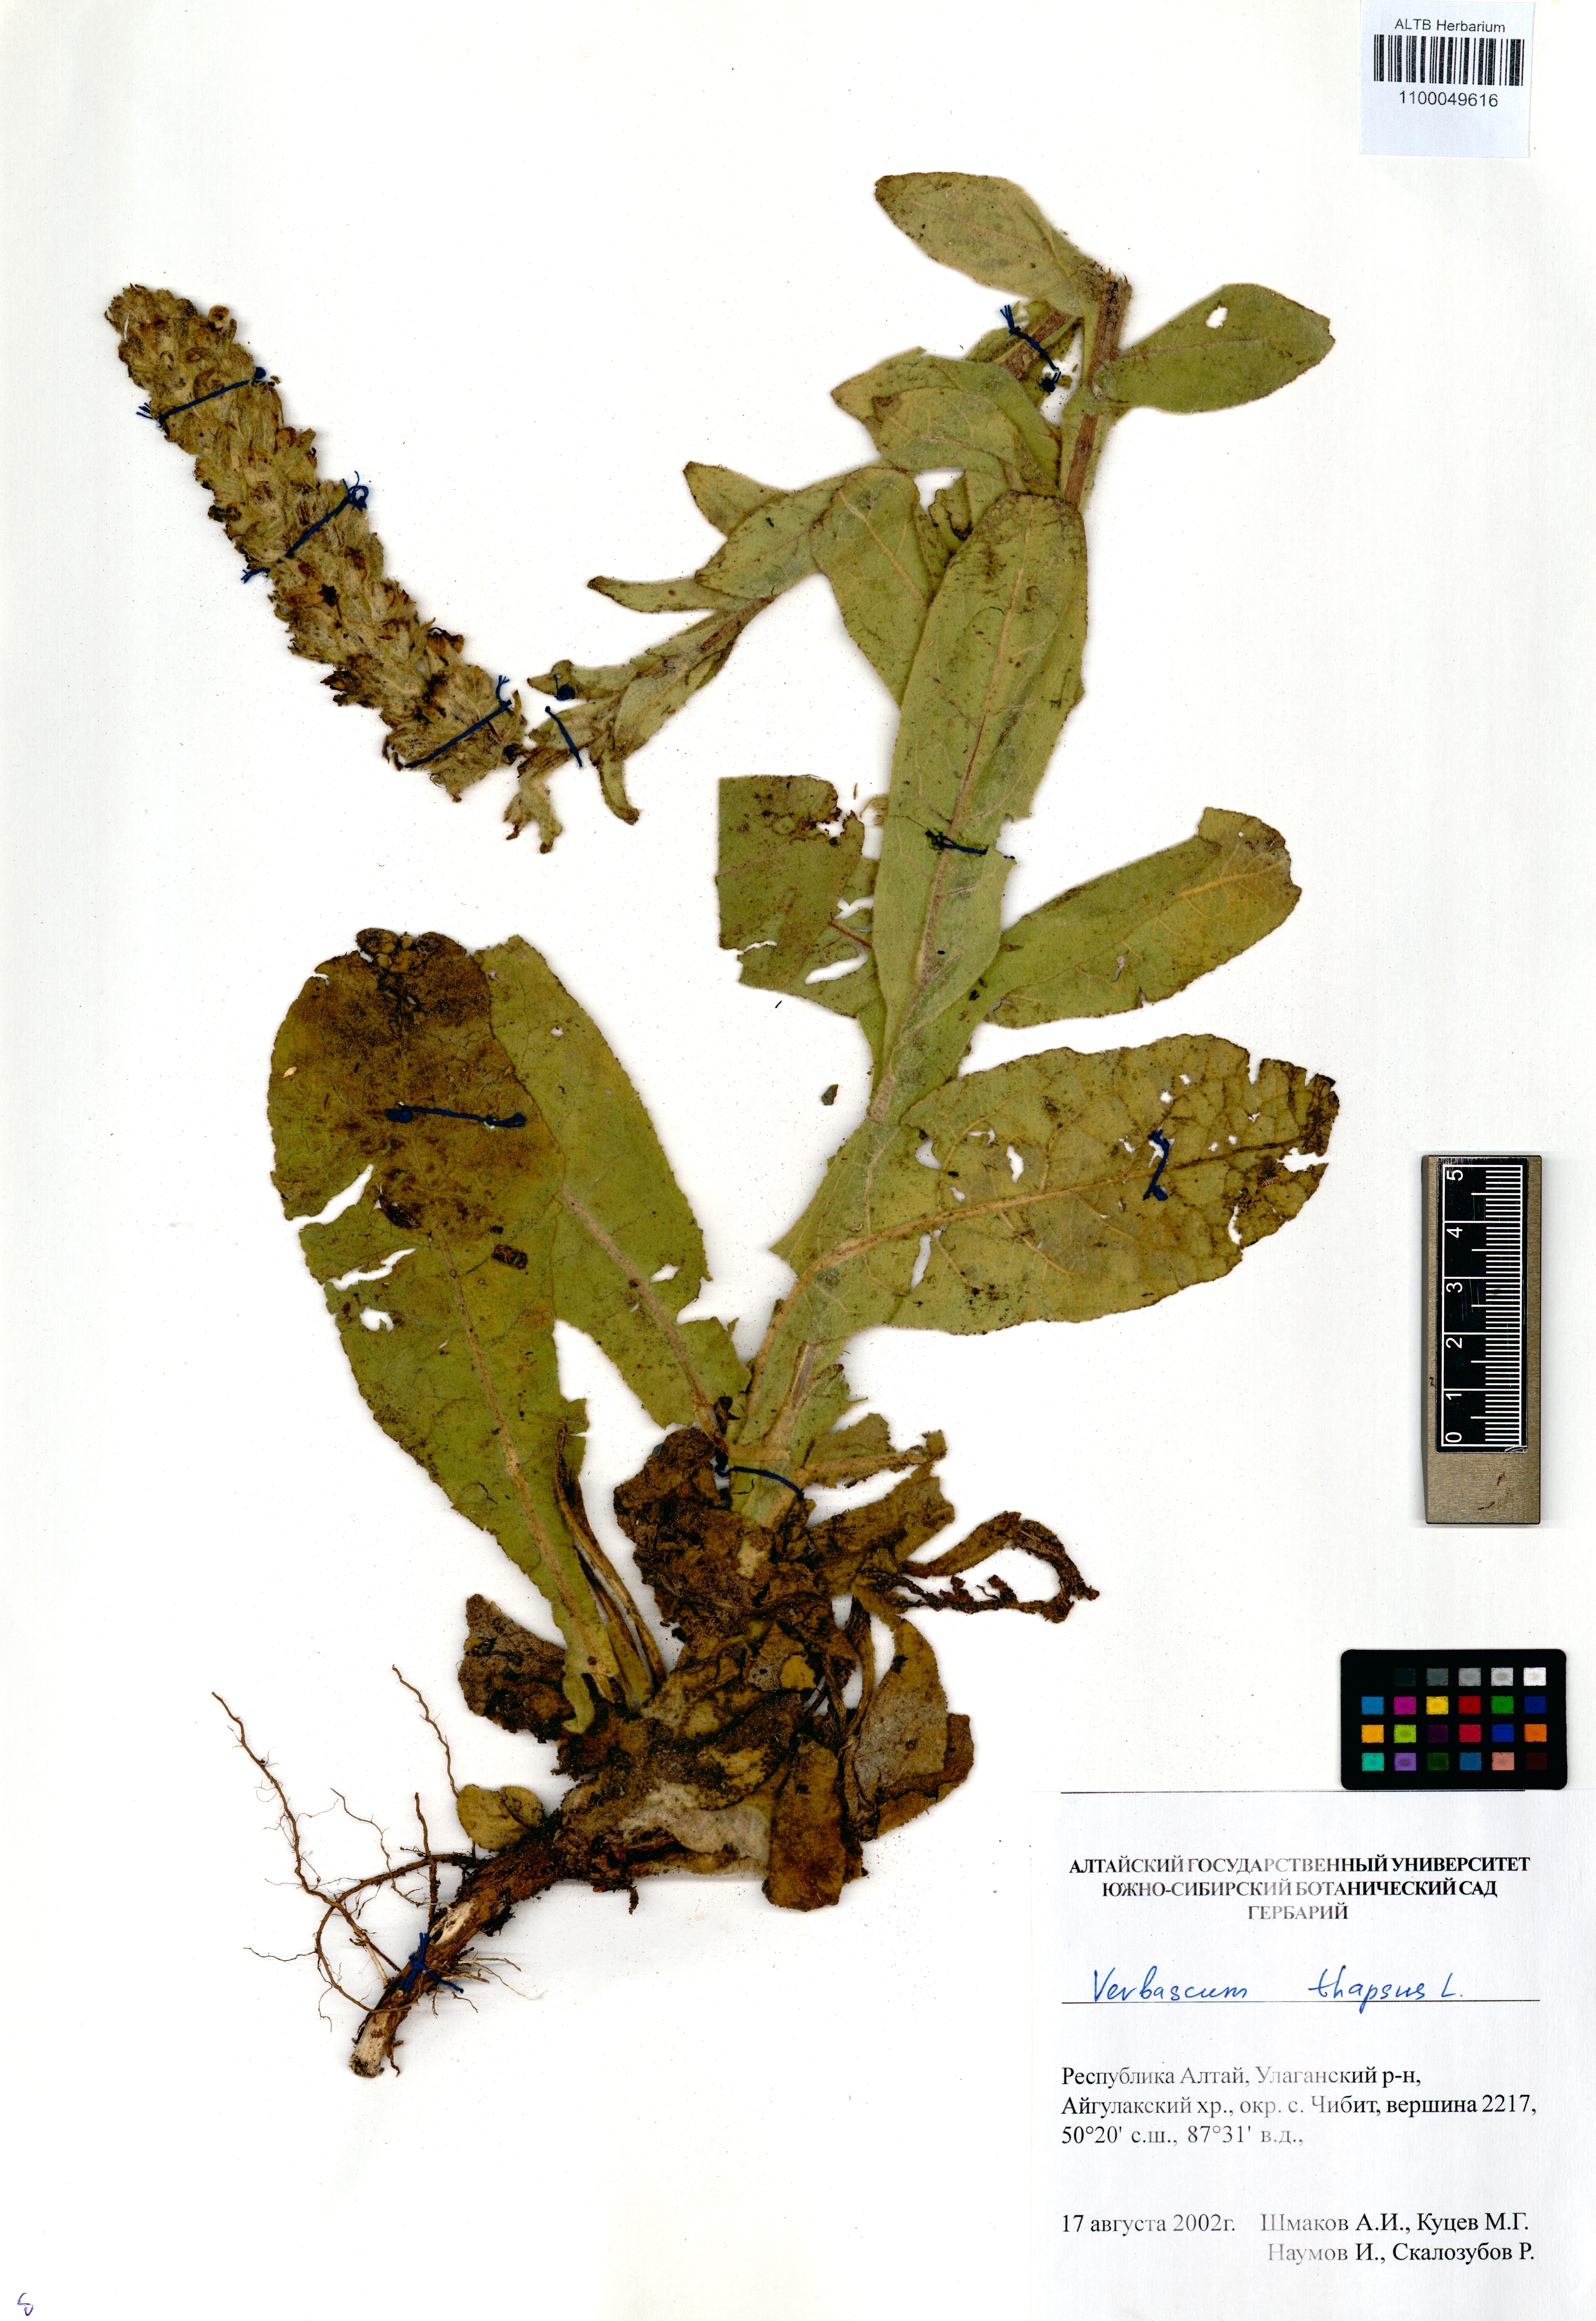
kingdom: Plantae
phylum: Tracheophyta
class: Magnoliopsida
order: Lamiales
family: Scrophulariaceae
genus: Verbascum
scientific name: Verbascum thapsus
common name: Common mullein
